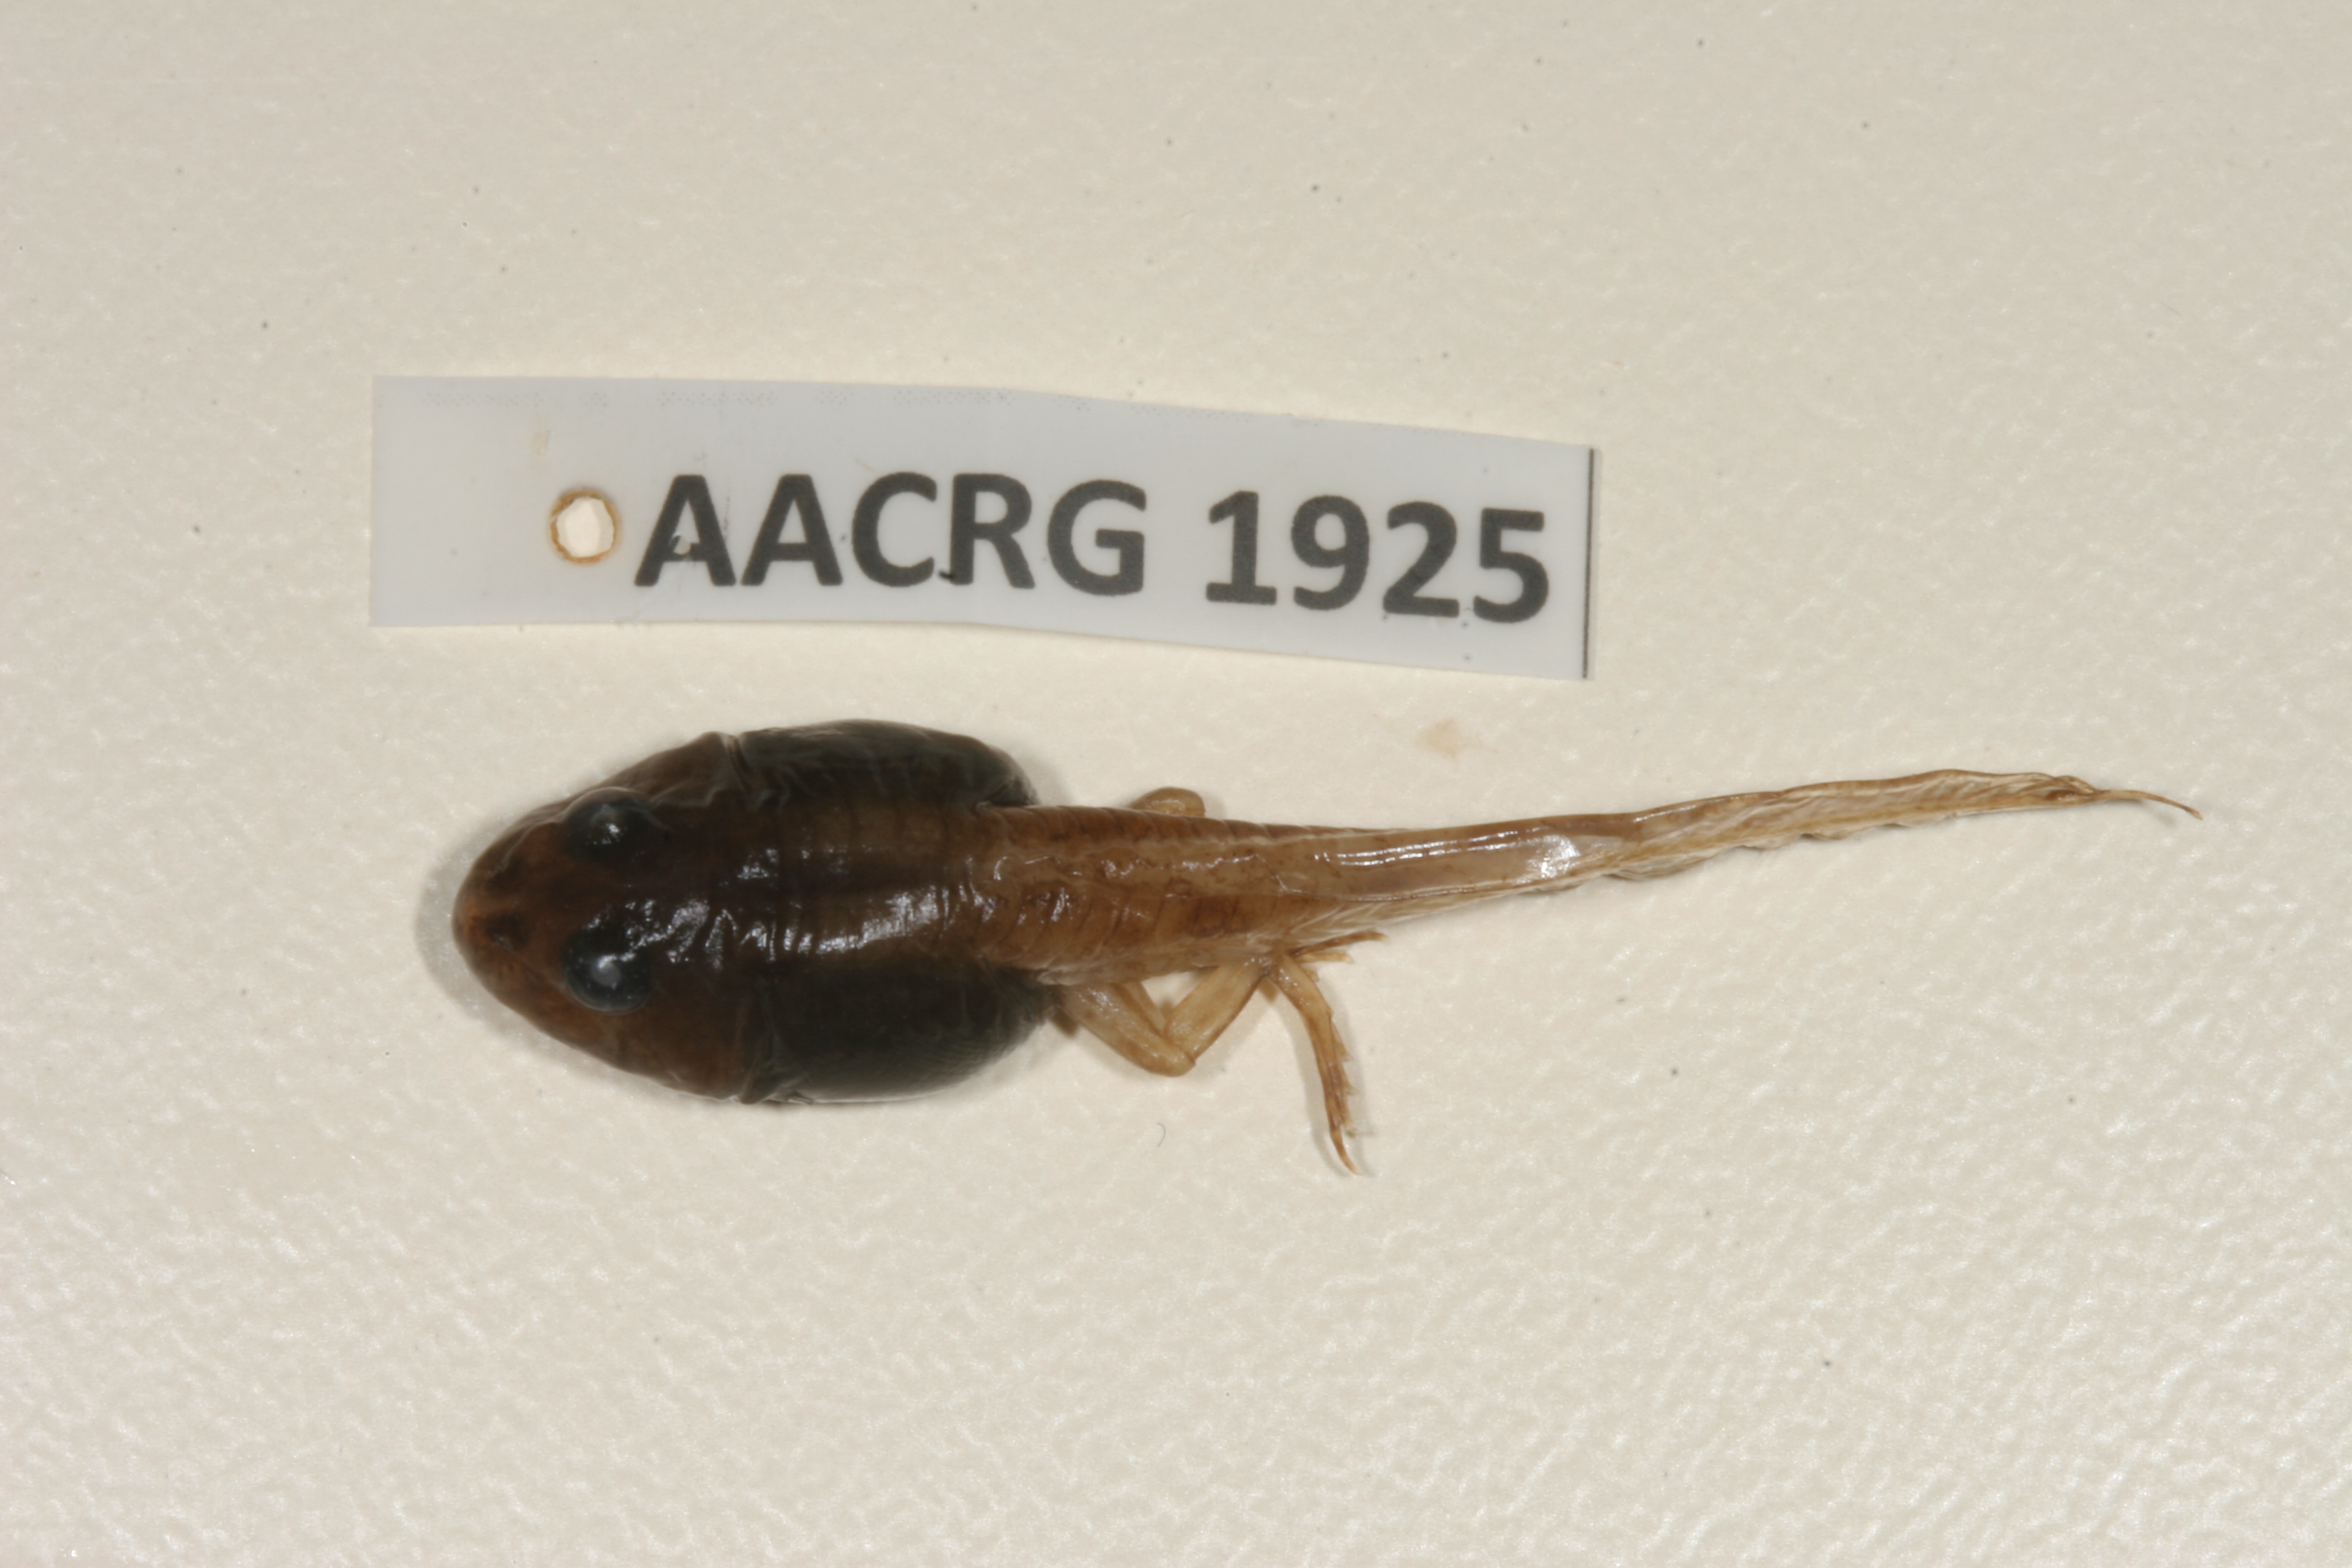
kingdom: Animalia
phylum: Chordata
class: Amphibia
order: Anura
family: Ptychadenidae
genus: Ptychadena
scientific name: Ptychadena taenioscelis
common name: Lukula grassland frog
